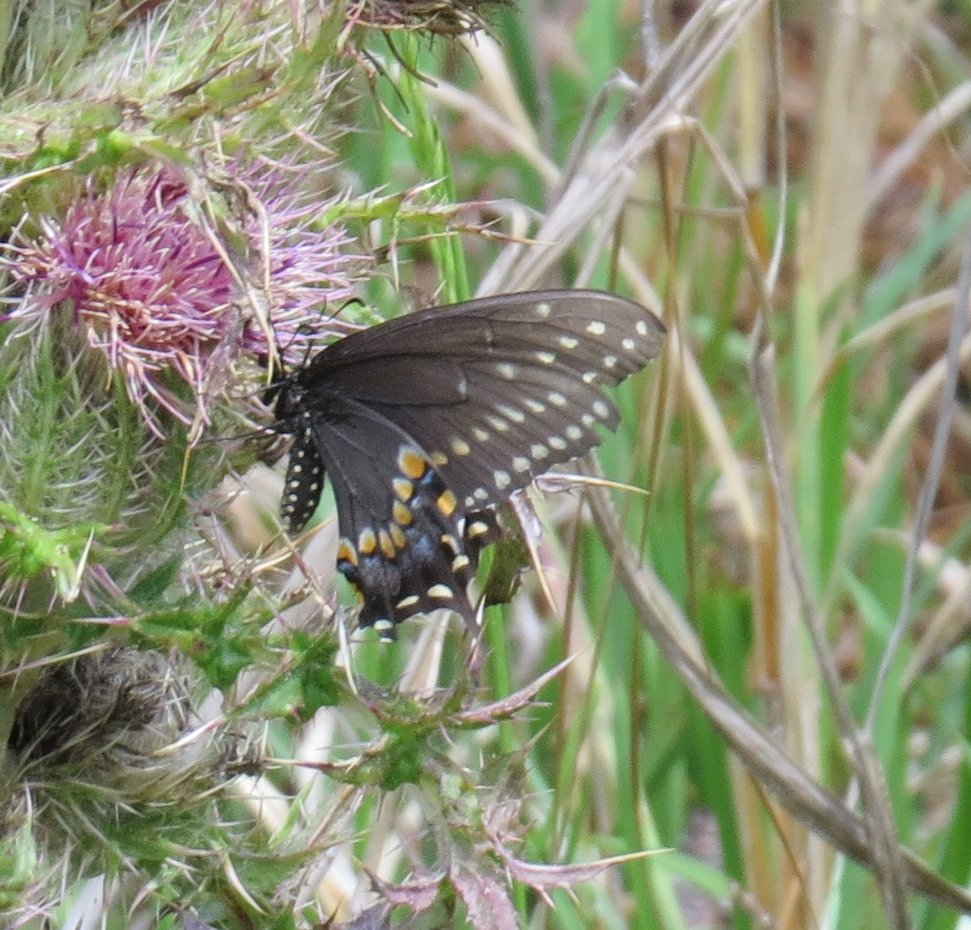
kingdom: Animalia
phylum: Arthropoda
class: Insecta
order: Lepidoptera
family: Papilionidae
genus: Papilio
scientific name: Papilio polyxenes
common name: Black Swallowtail
